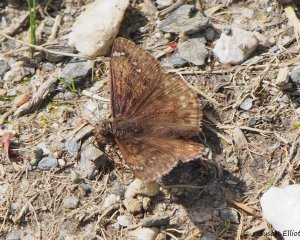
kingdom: Animalia
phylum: Arthropoda
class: Insecta
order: Lepidoptera
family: Hesperiidae
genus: Gesta
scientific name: Gesta
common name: Juvenal's Duskywing
